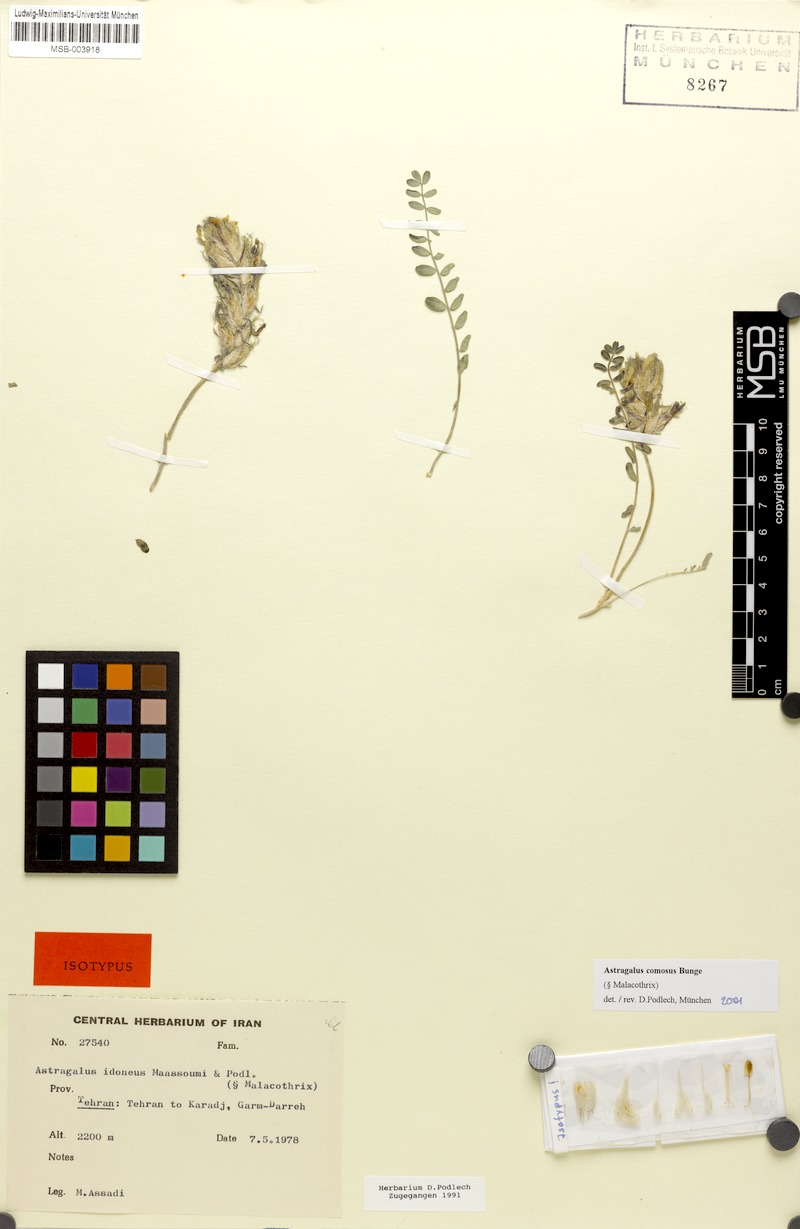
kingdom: Plantae
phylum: Tracheophyta
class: Magnoliopsida
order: Fabales
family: Fabaceae
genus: Astragalus
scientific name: Astragalus comosus
